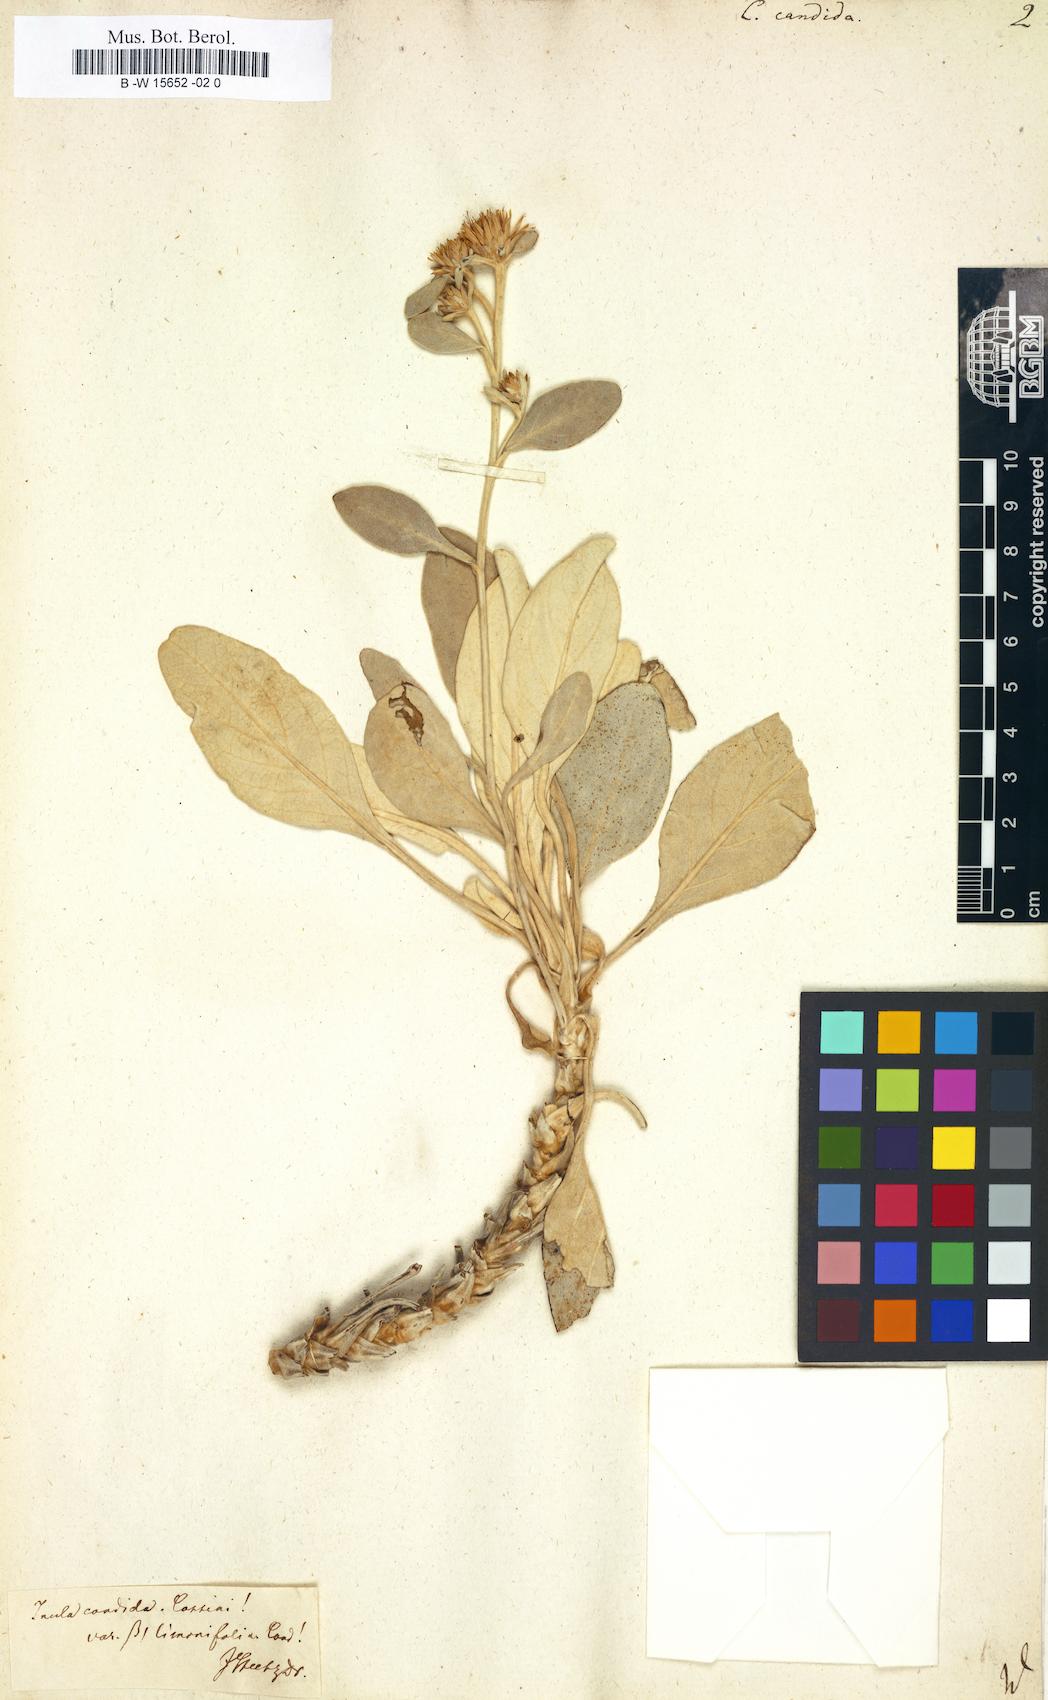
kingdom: Plantae
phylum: Tracheophyta
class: Magnoliopsida
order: Asterales
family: Asteraceae
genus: Inula
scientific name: Inula candida
